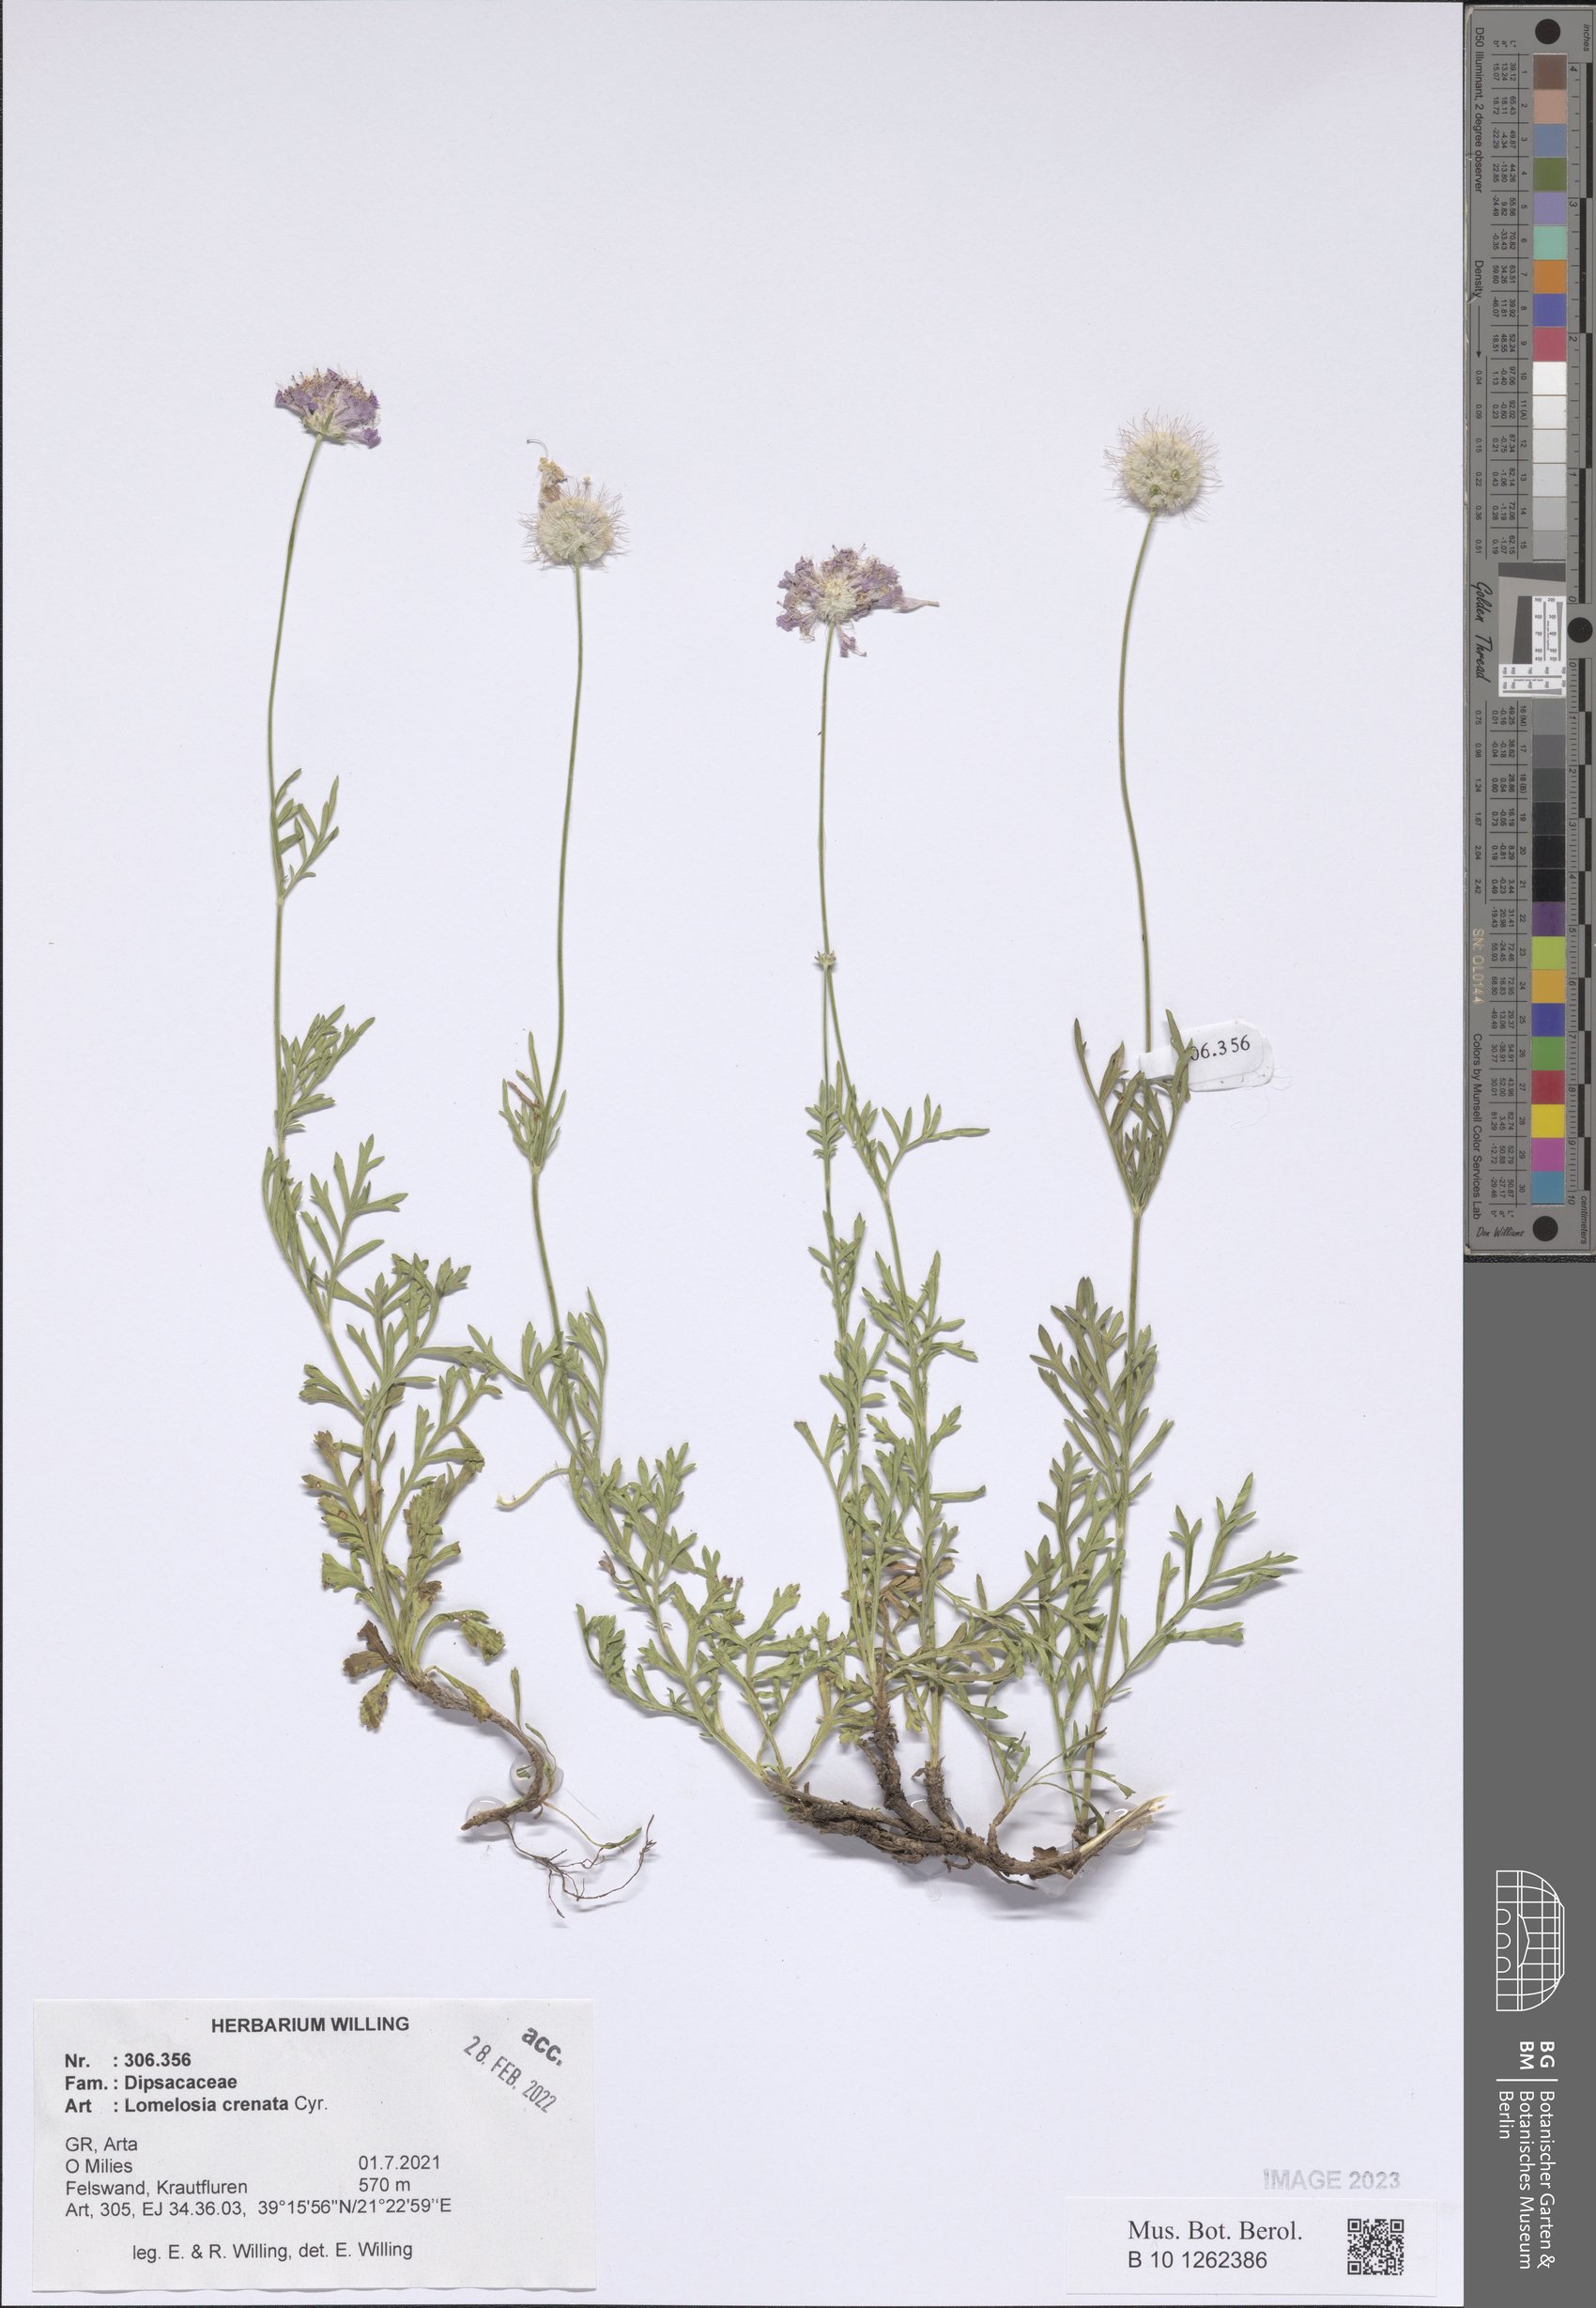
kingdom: Plantae
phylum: Tracheophyta
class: Magnoliopsida
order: Dipsacales
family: Caprifoliaceae
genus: Lomelosia
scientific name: Lomelosia crenata
